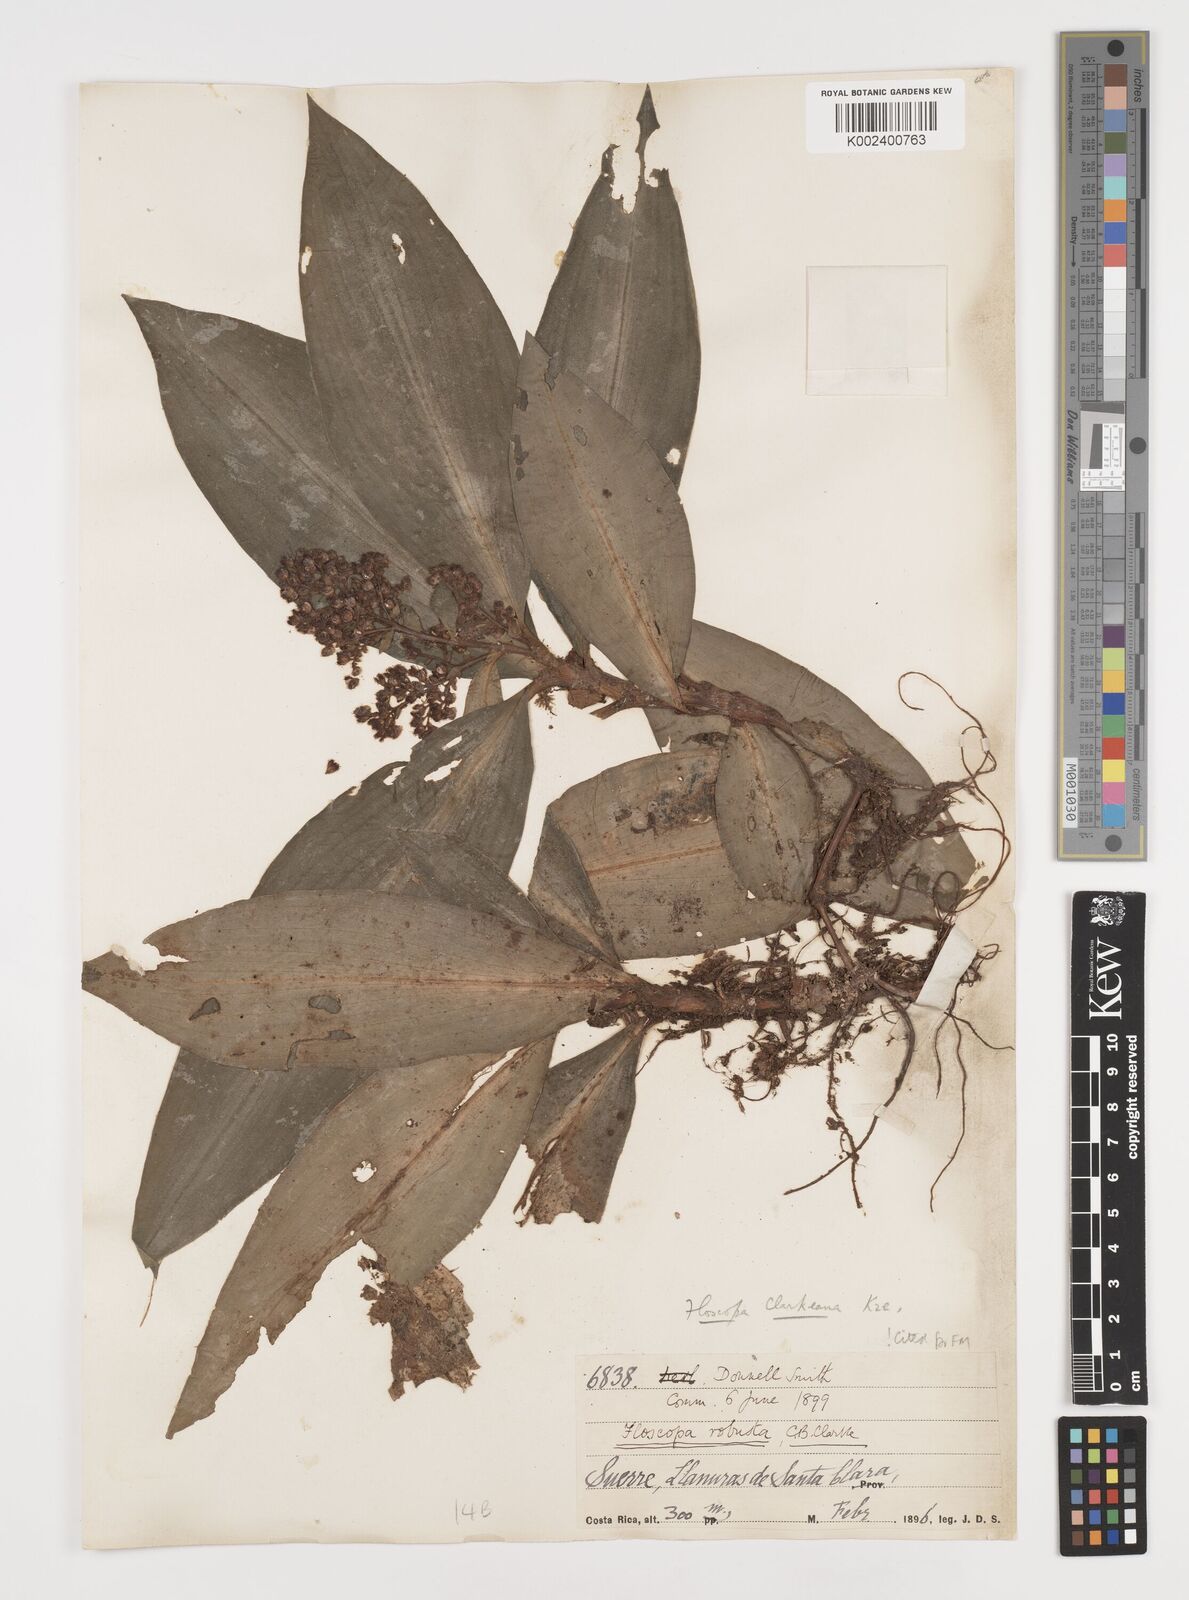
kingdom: Plantae
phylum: Tracheophyta
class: Liliopsida
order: Commelinales
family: Commelinaceae
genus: Floscopa
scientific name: Floscopa robusta
